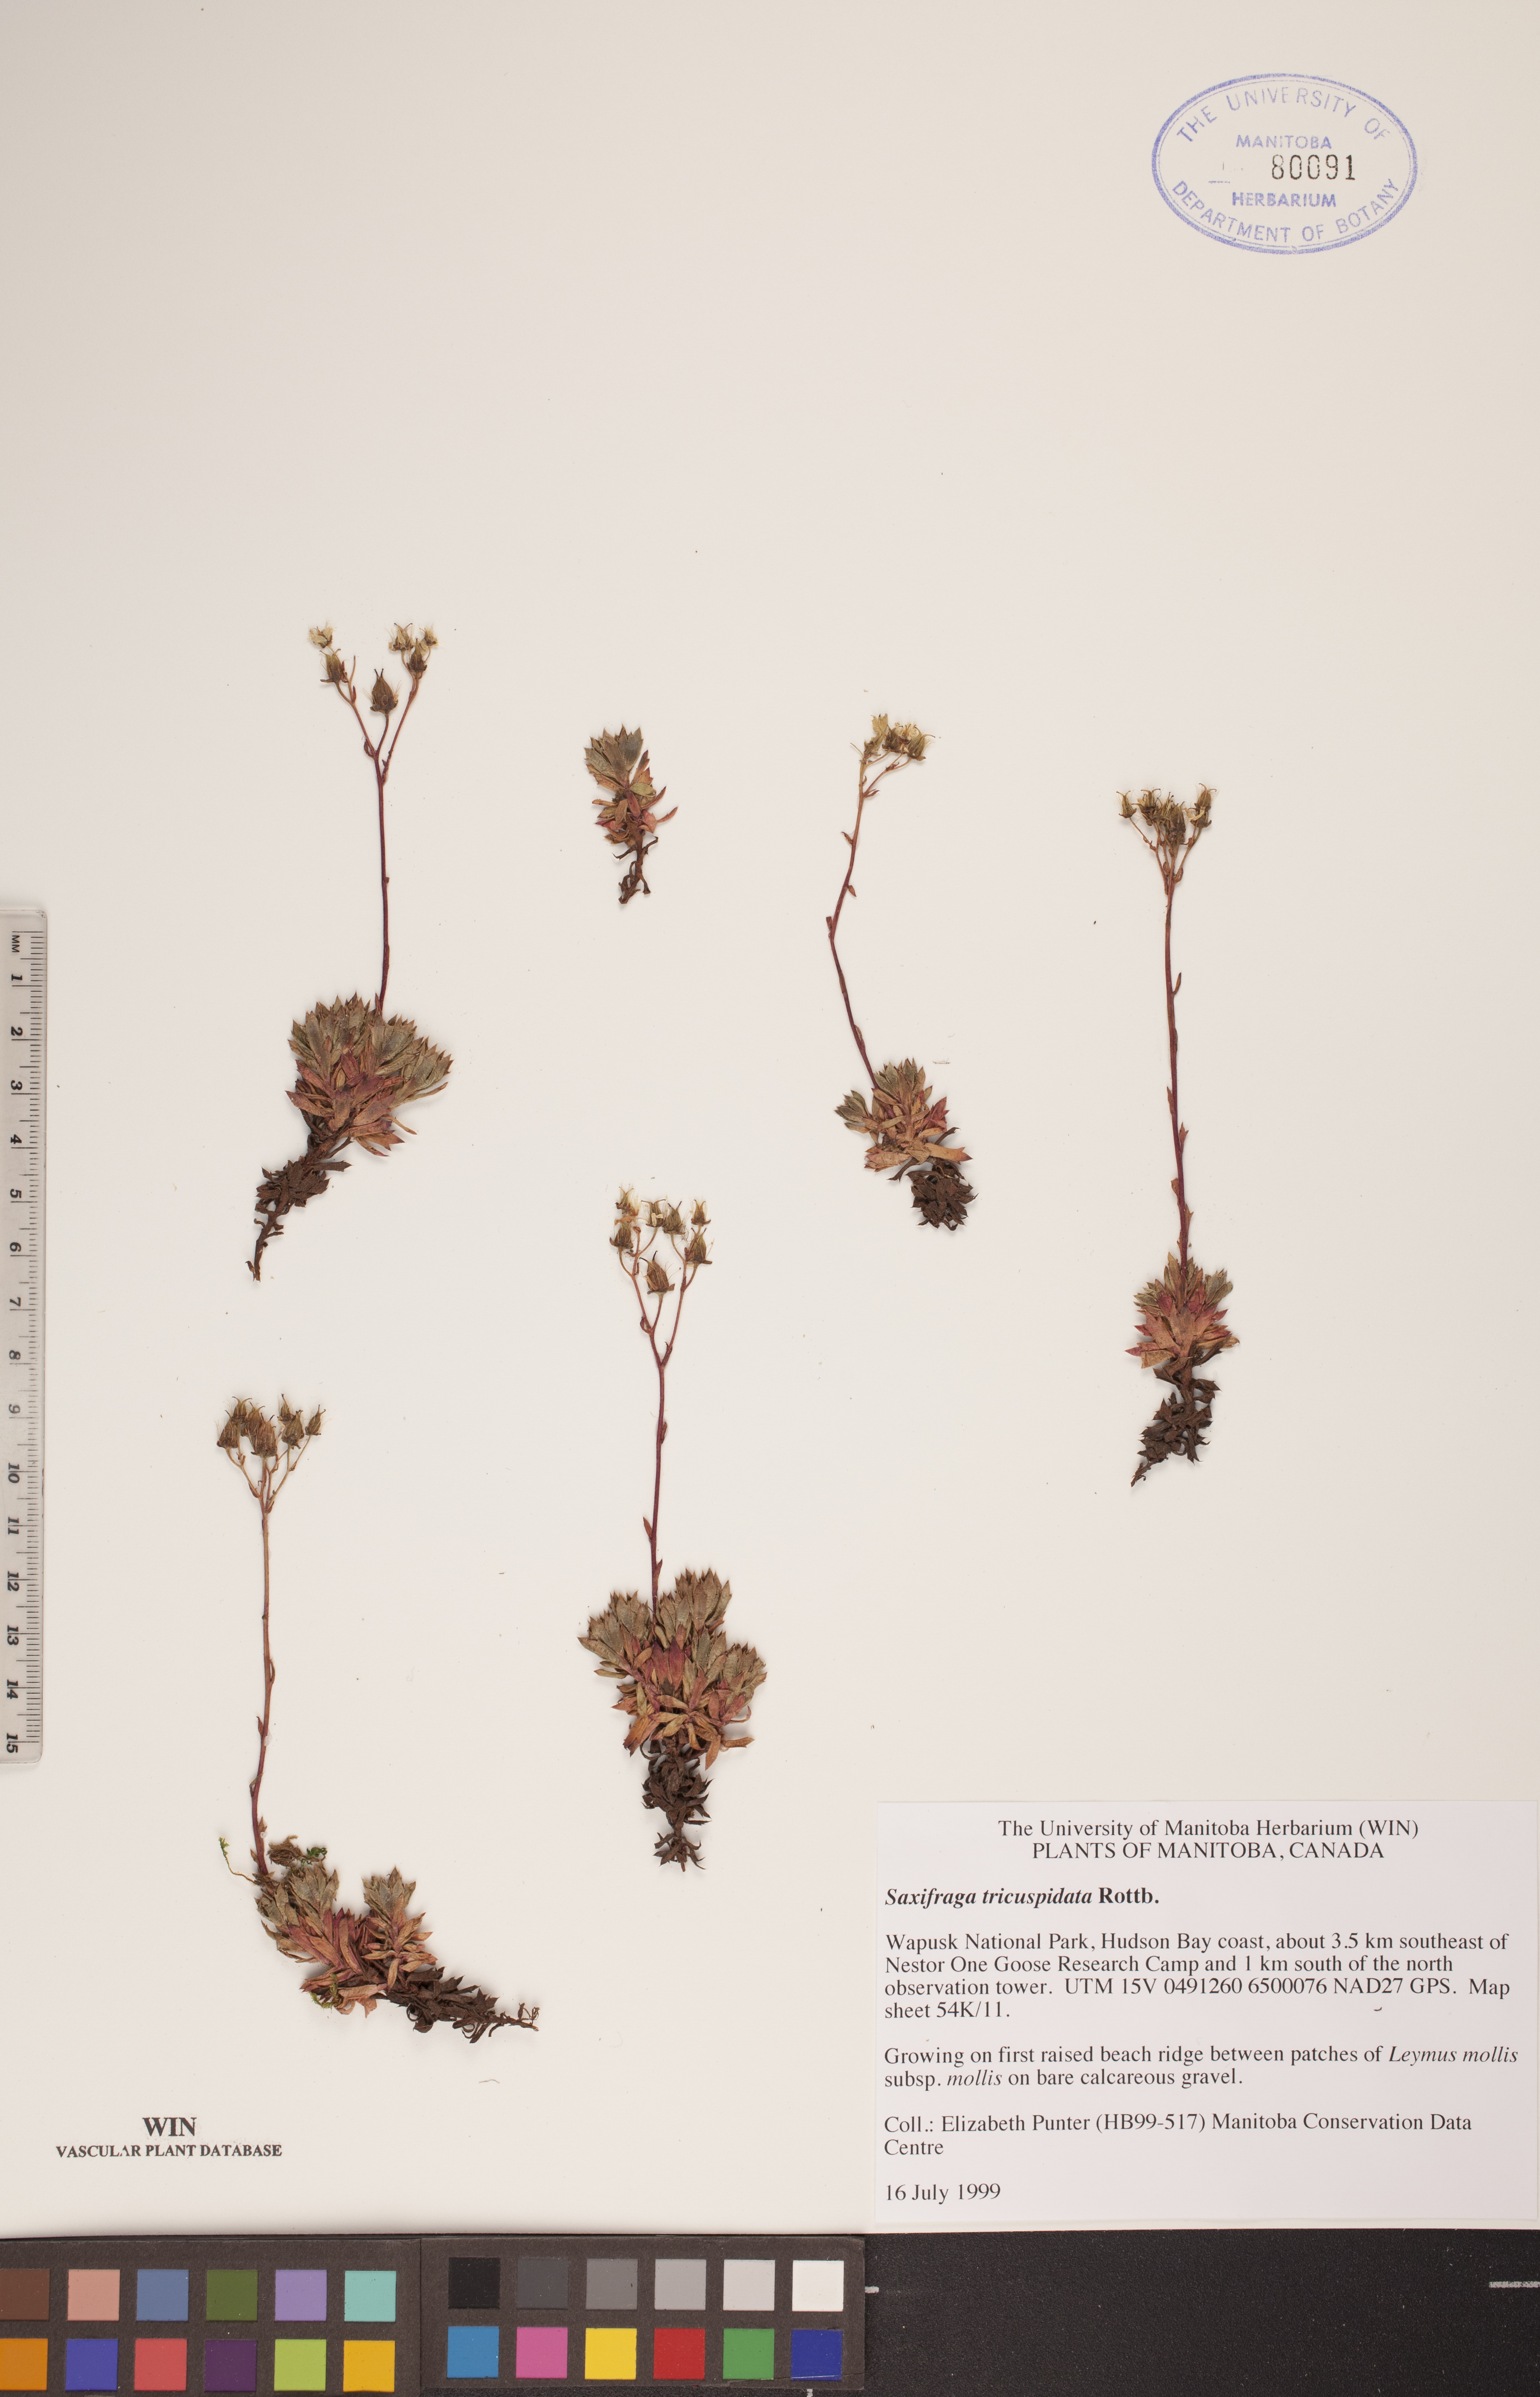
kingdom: Plantae
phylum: Tracheophyta
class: Magnoliopsida
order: Saxifragales
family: Saxifragaceae
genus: Saxifraga
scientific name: Saxifraga tricuspidata
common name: Prickly saxifrage
